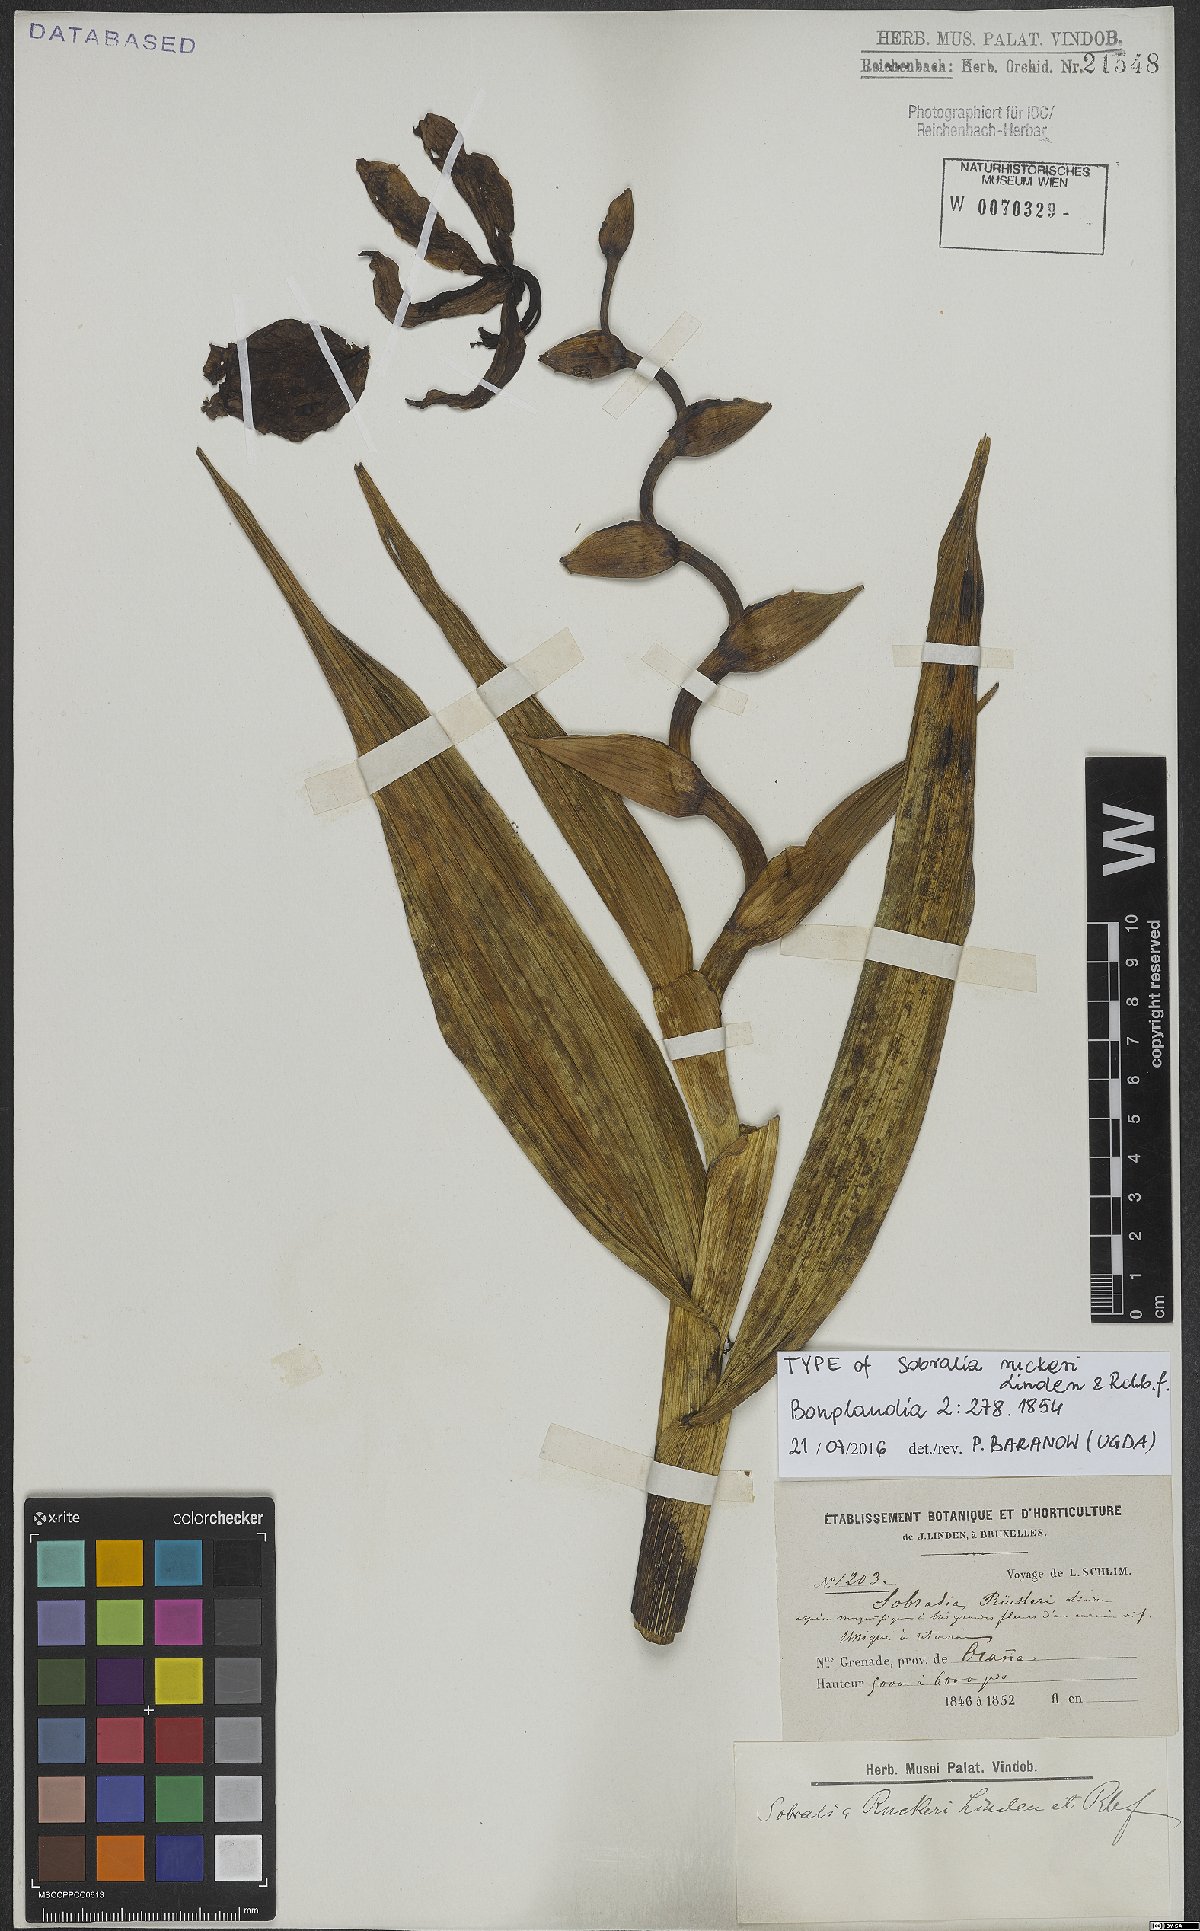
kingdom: Plantae
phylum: Tracheophyta
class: Liliopsida
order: Asparagales
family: Orchidaceae
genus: Sobralia
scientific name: Sobralia ruckeri
